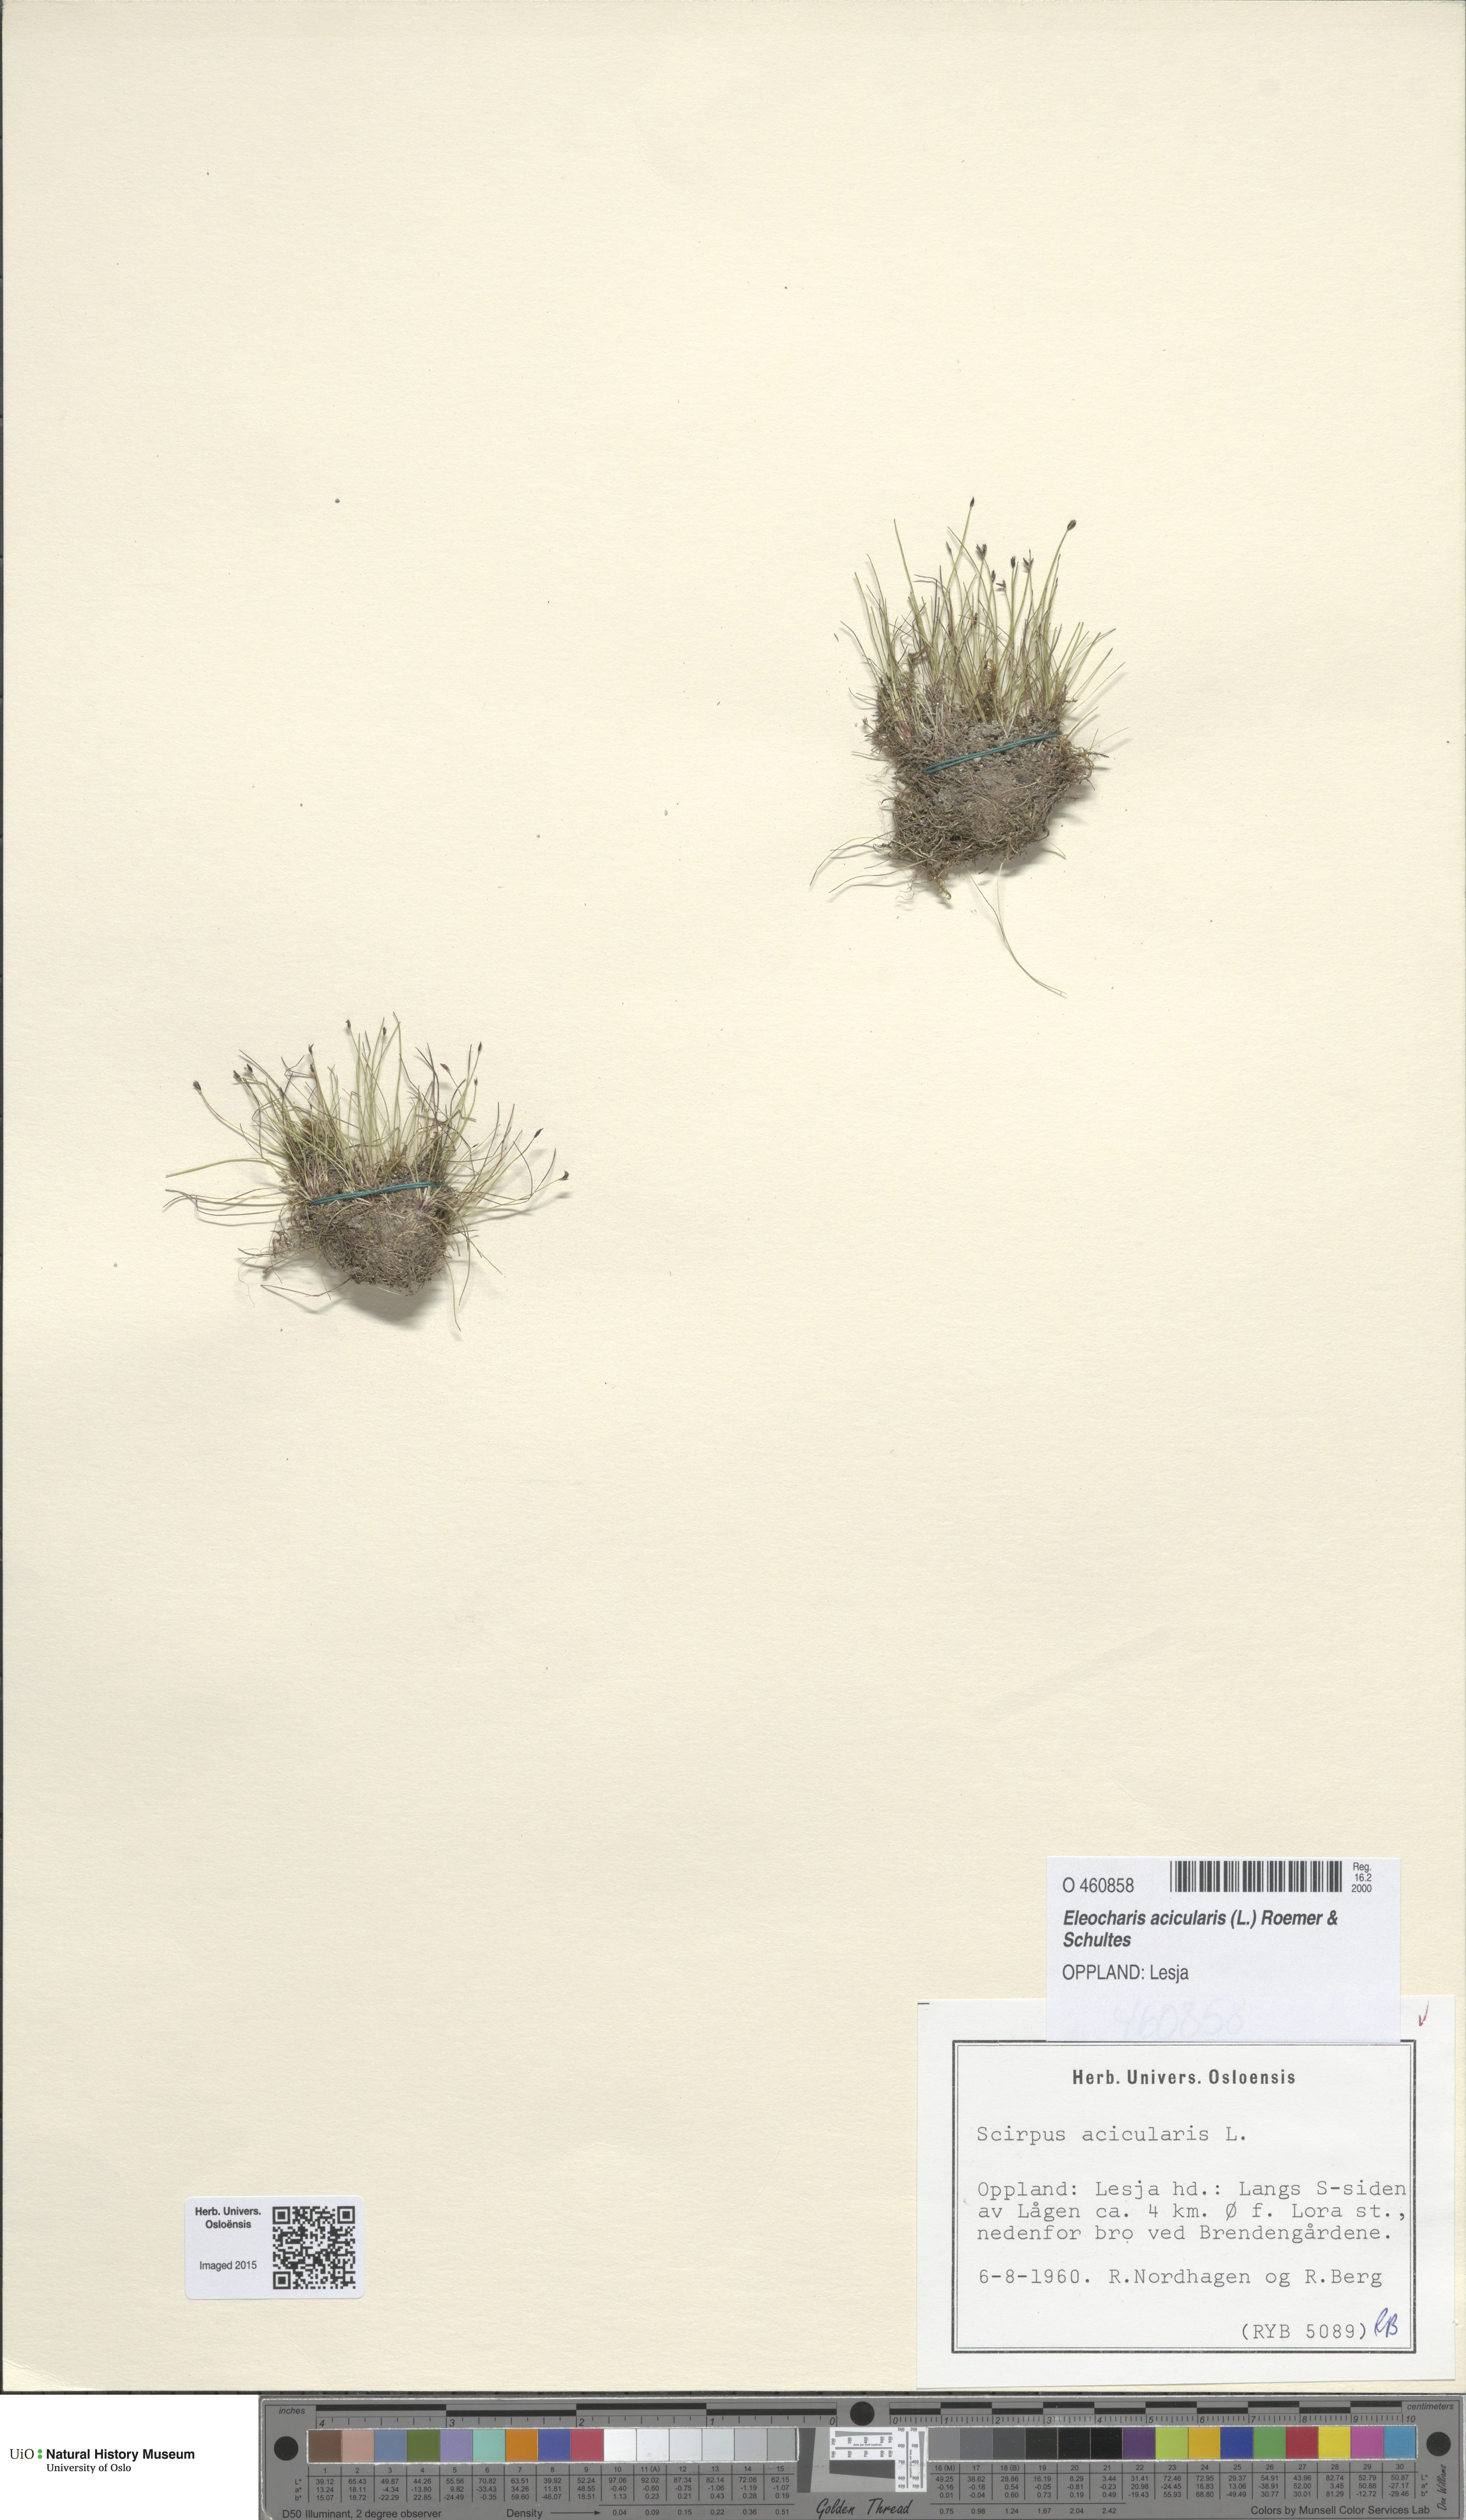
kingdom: Plantae
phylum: Tracheophyta
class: Liliopsida
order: Poales
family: Cyperaceae
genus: Eleocharis
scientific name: Eleocharis acicularis
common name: Needle spike-rush
